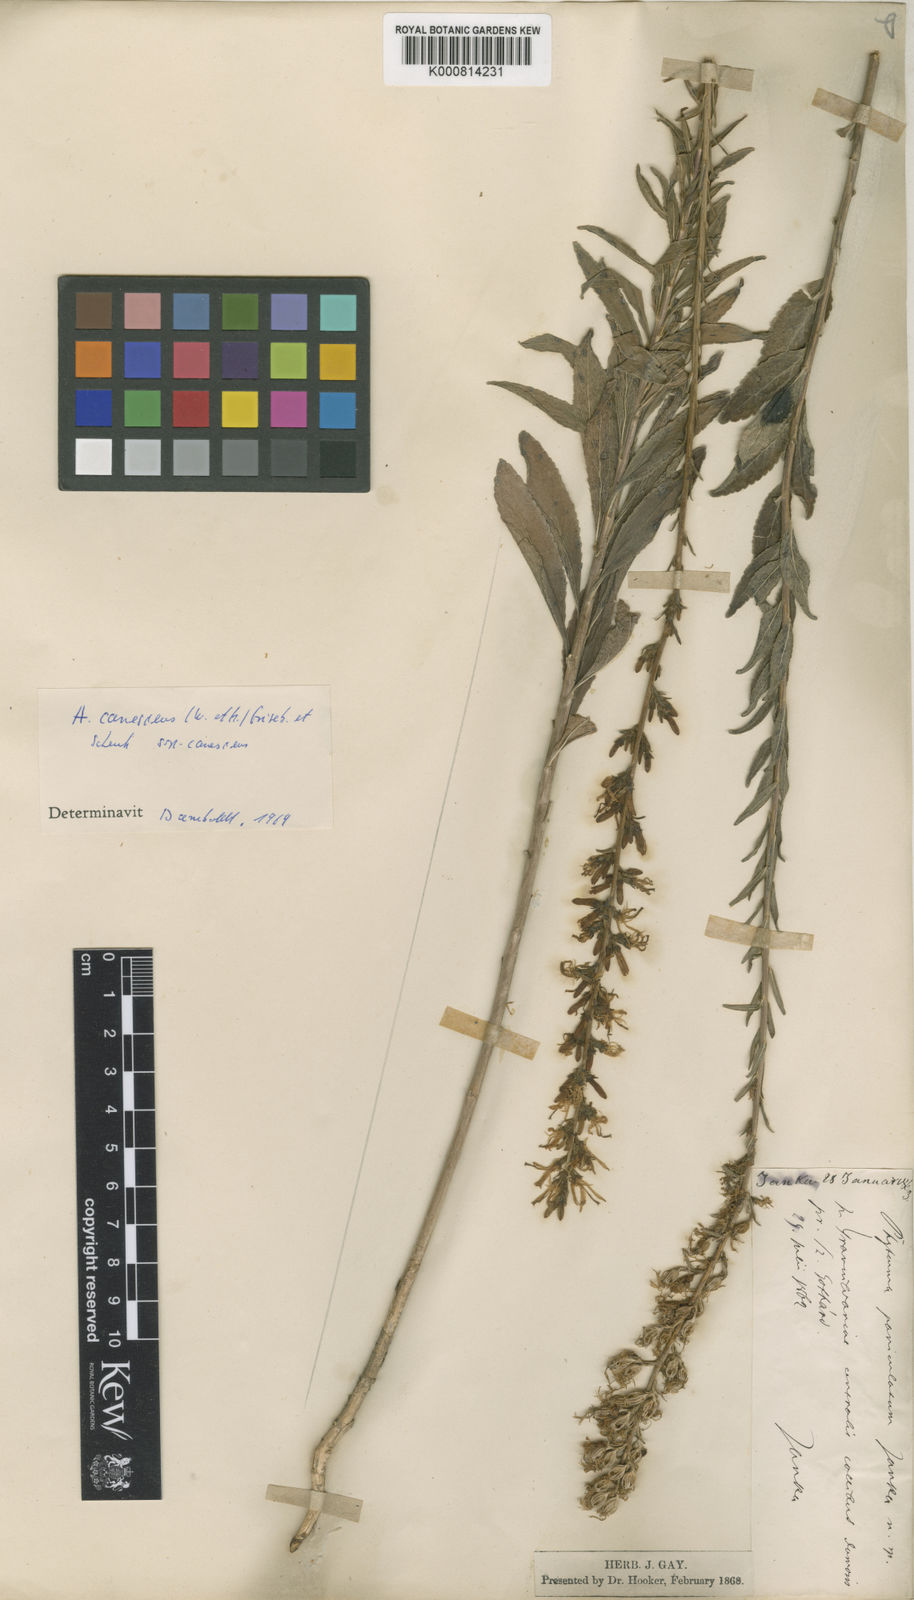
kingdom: Plantae
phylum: Tracheophyta
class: Magnoliopsida
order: Asterales
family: Campanulaceae
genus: Asyneuma
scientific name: Asyneuma canescens
